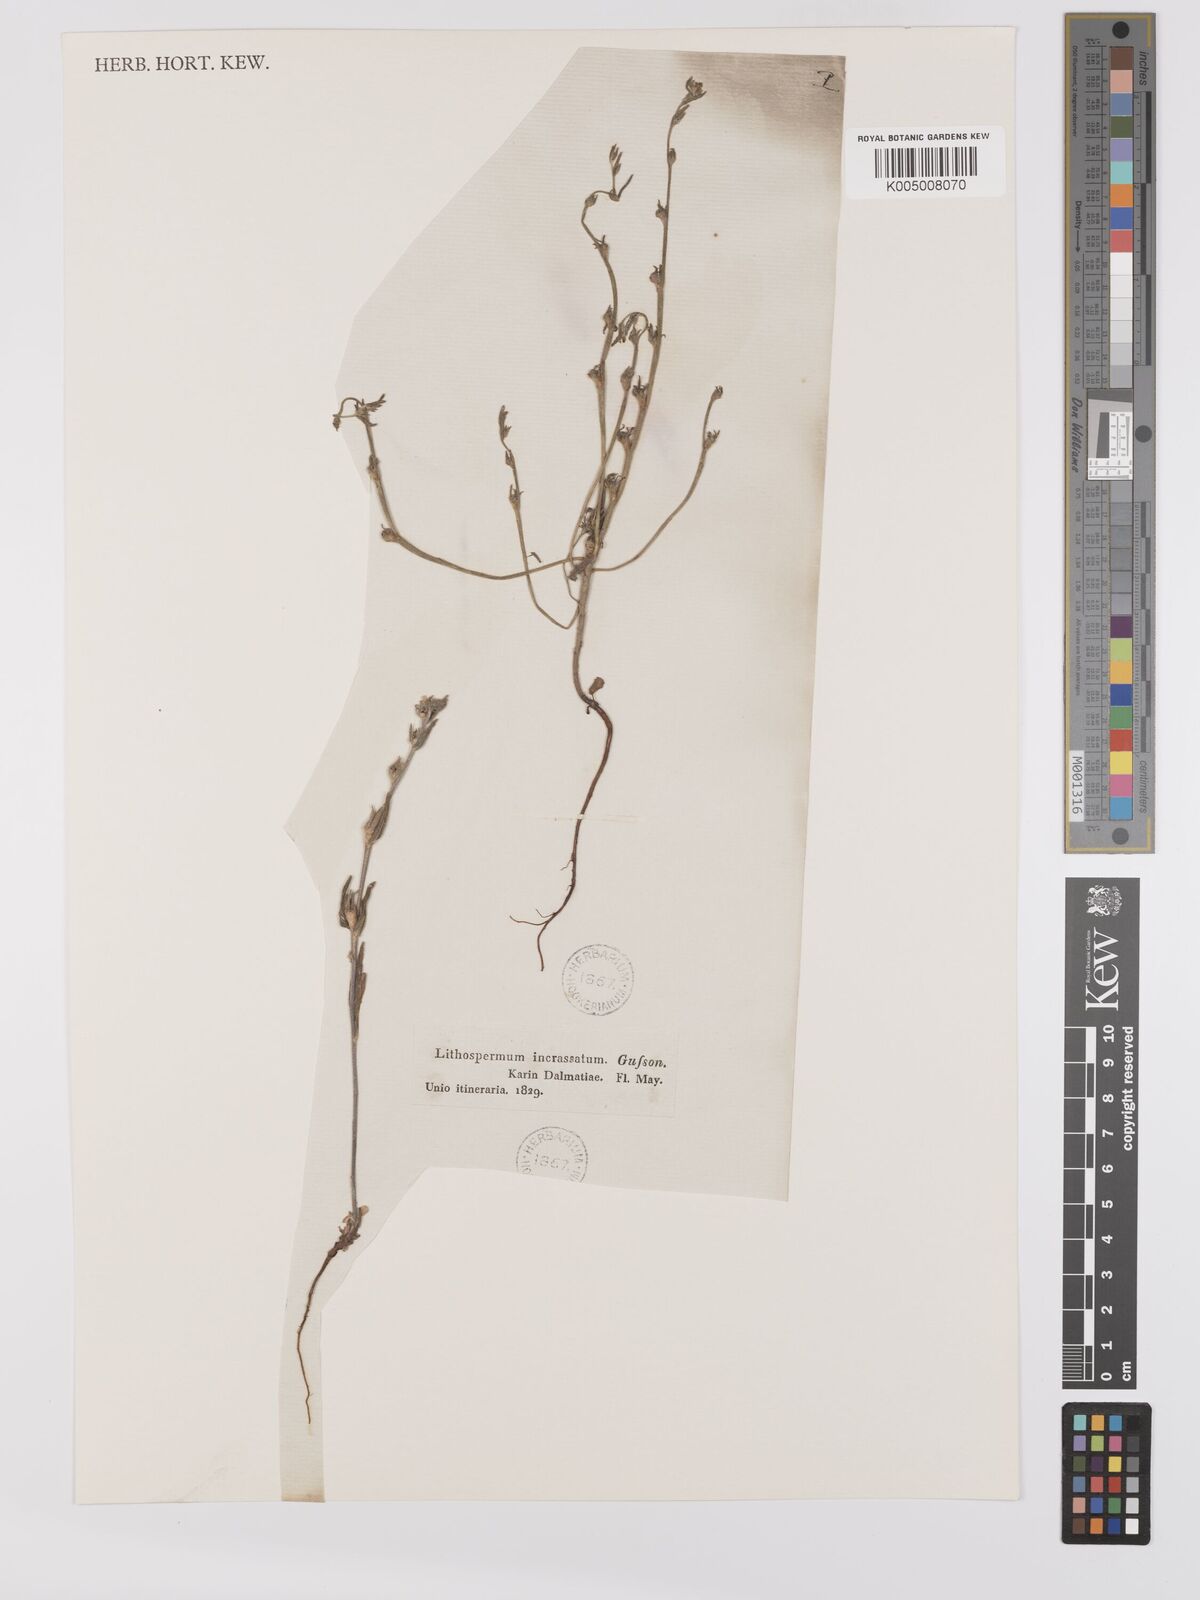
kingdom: Plantae
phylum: Tracheophyta
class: Magnoliopsida
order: Boraginales
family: Boraginaceae
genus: Buglossoides
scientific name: Buglossoides incrassata
